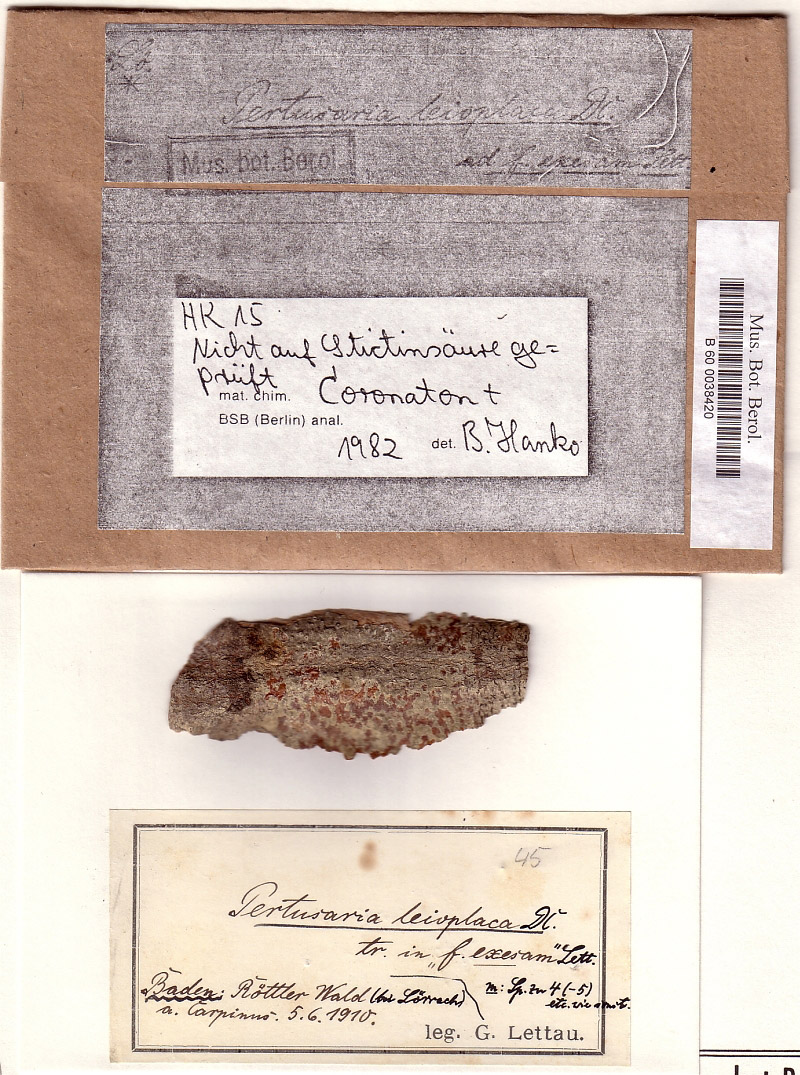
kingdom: Fungi
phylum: Ascomycota
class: Lecanoromycetes
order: Pertusariales
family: Pertusariaceae
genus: Pertusaria
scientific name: Pertusaria leioplaca
